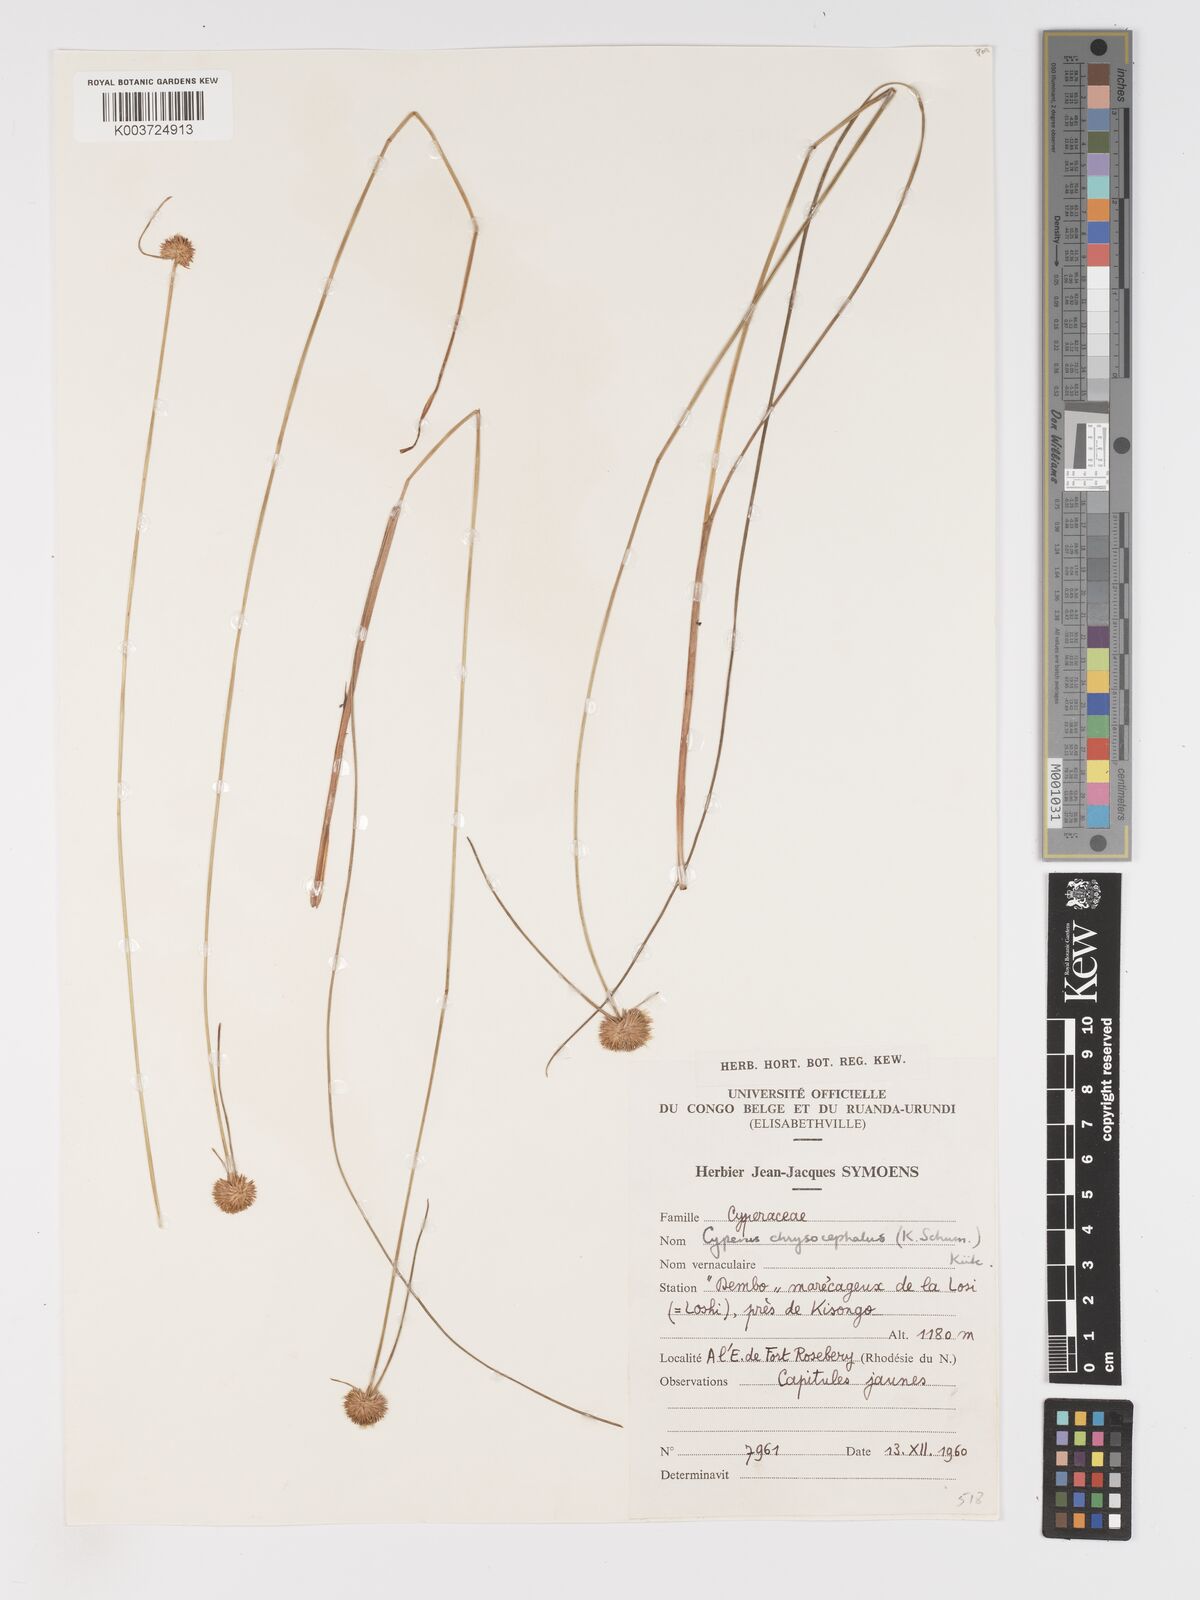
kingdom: Plantae
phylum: Tracheophyta
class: Liliopsida
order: Poales
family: Cyperaceae
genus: Cyperus
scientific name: Cyperus chrysocephalus
